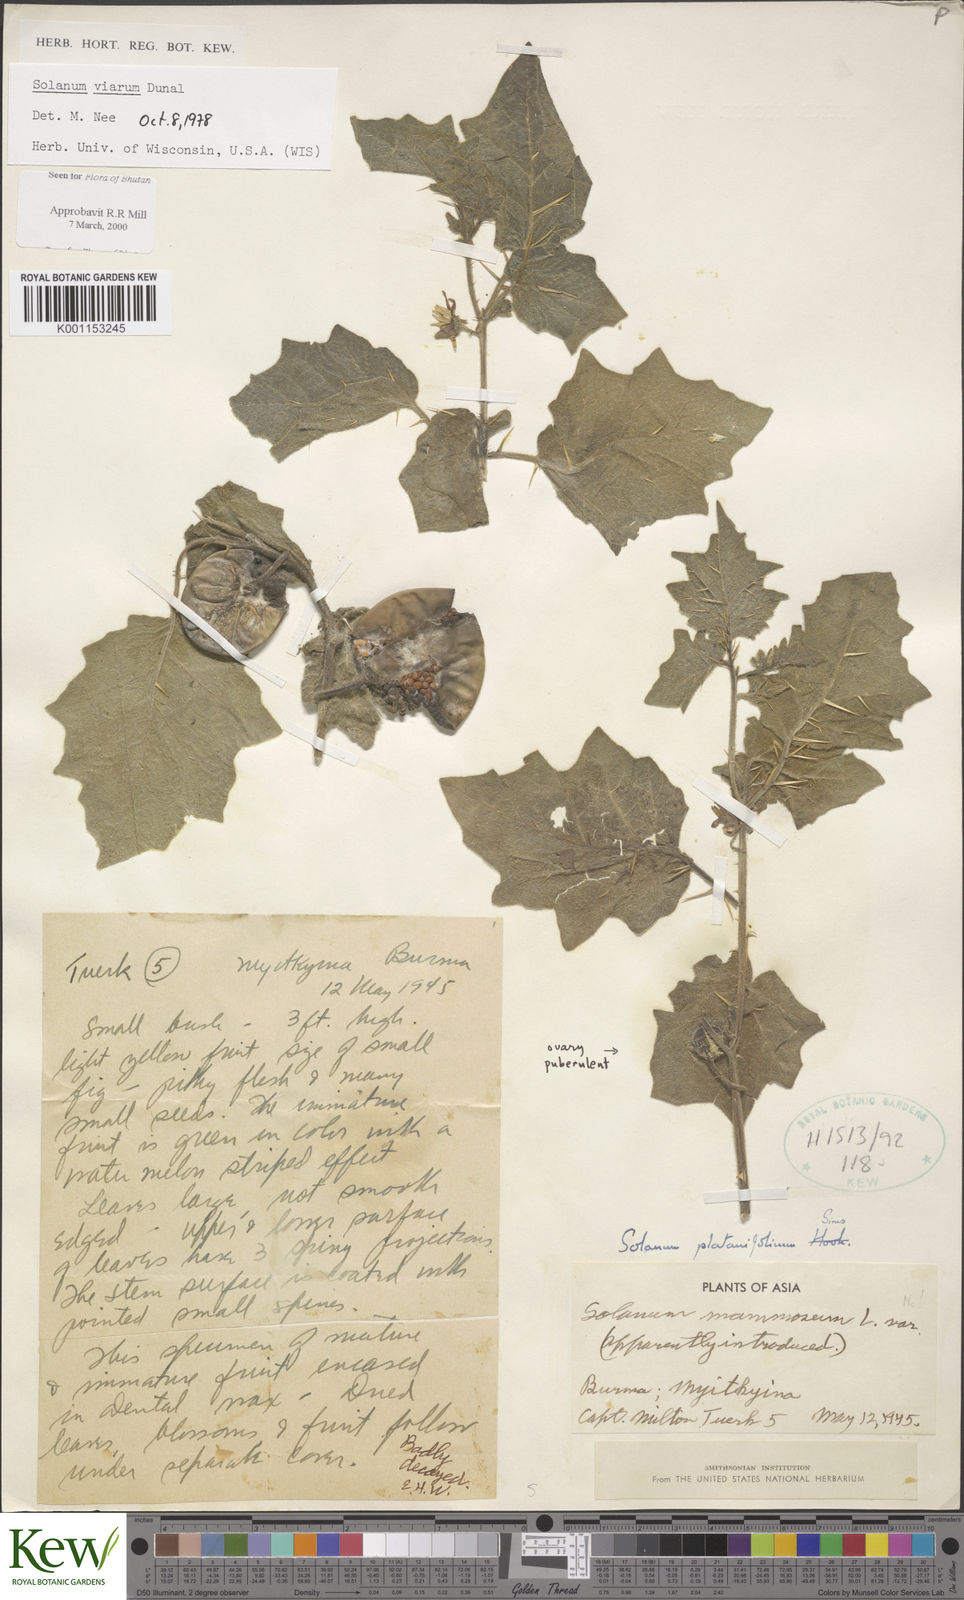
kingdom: Plantae
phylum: Tracheophyta
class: Magnoliopsida
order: Solanales
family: Solanaceae
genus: Solanum
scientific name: Solanum viarum
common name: Tropical soda apple
